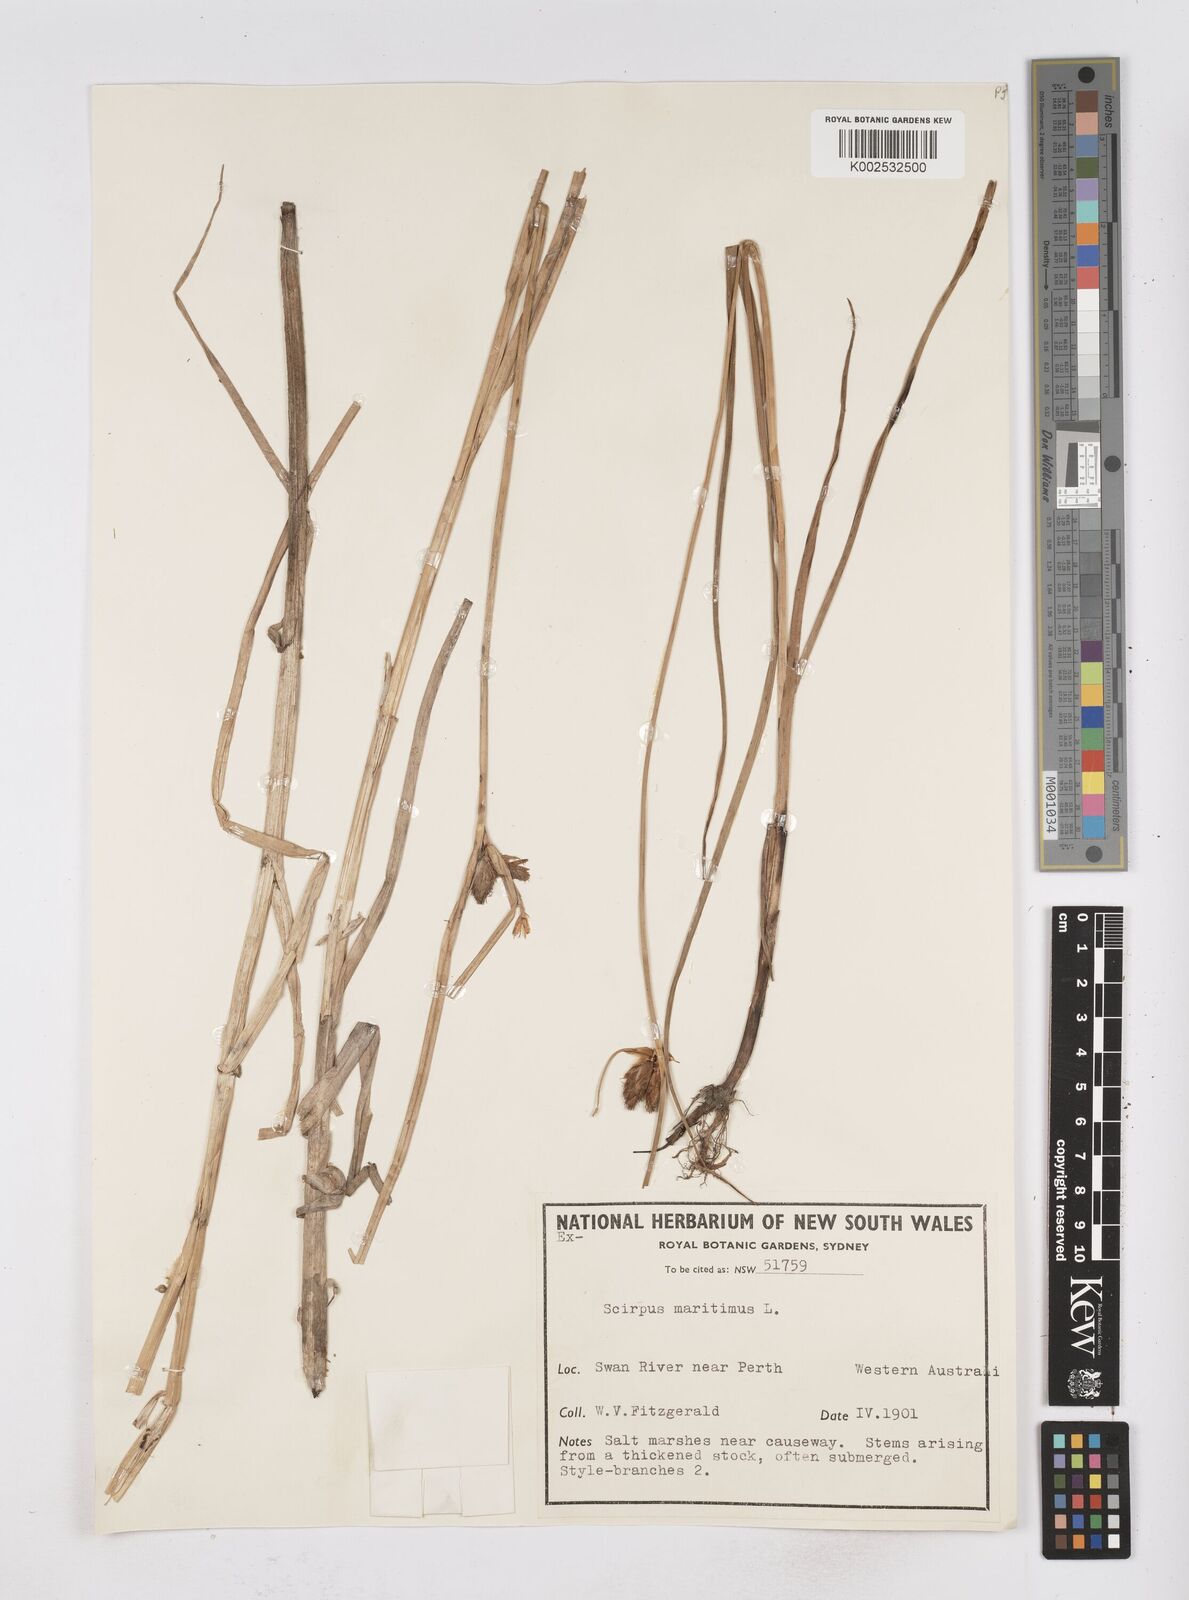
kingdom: Plantae
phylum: Tracheophyta
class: Liliopsida
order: Poales
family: Cyperaceae
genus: Bolboschoenus
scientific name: Bolboschoenus maritimus
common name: Sea club-rush
